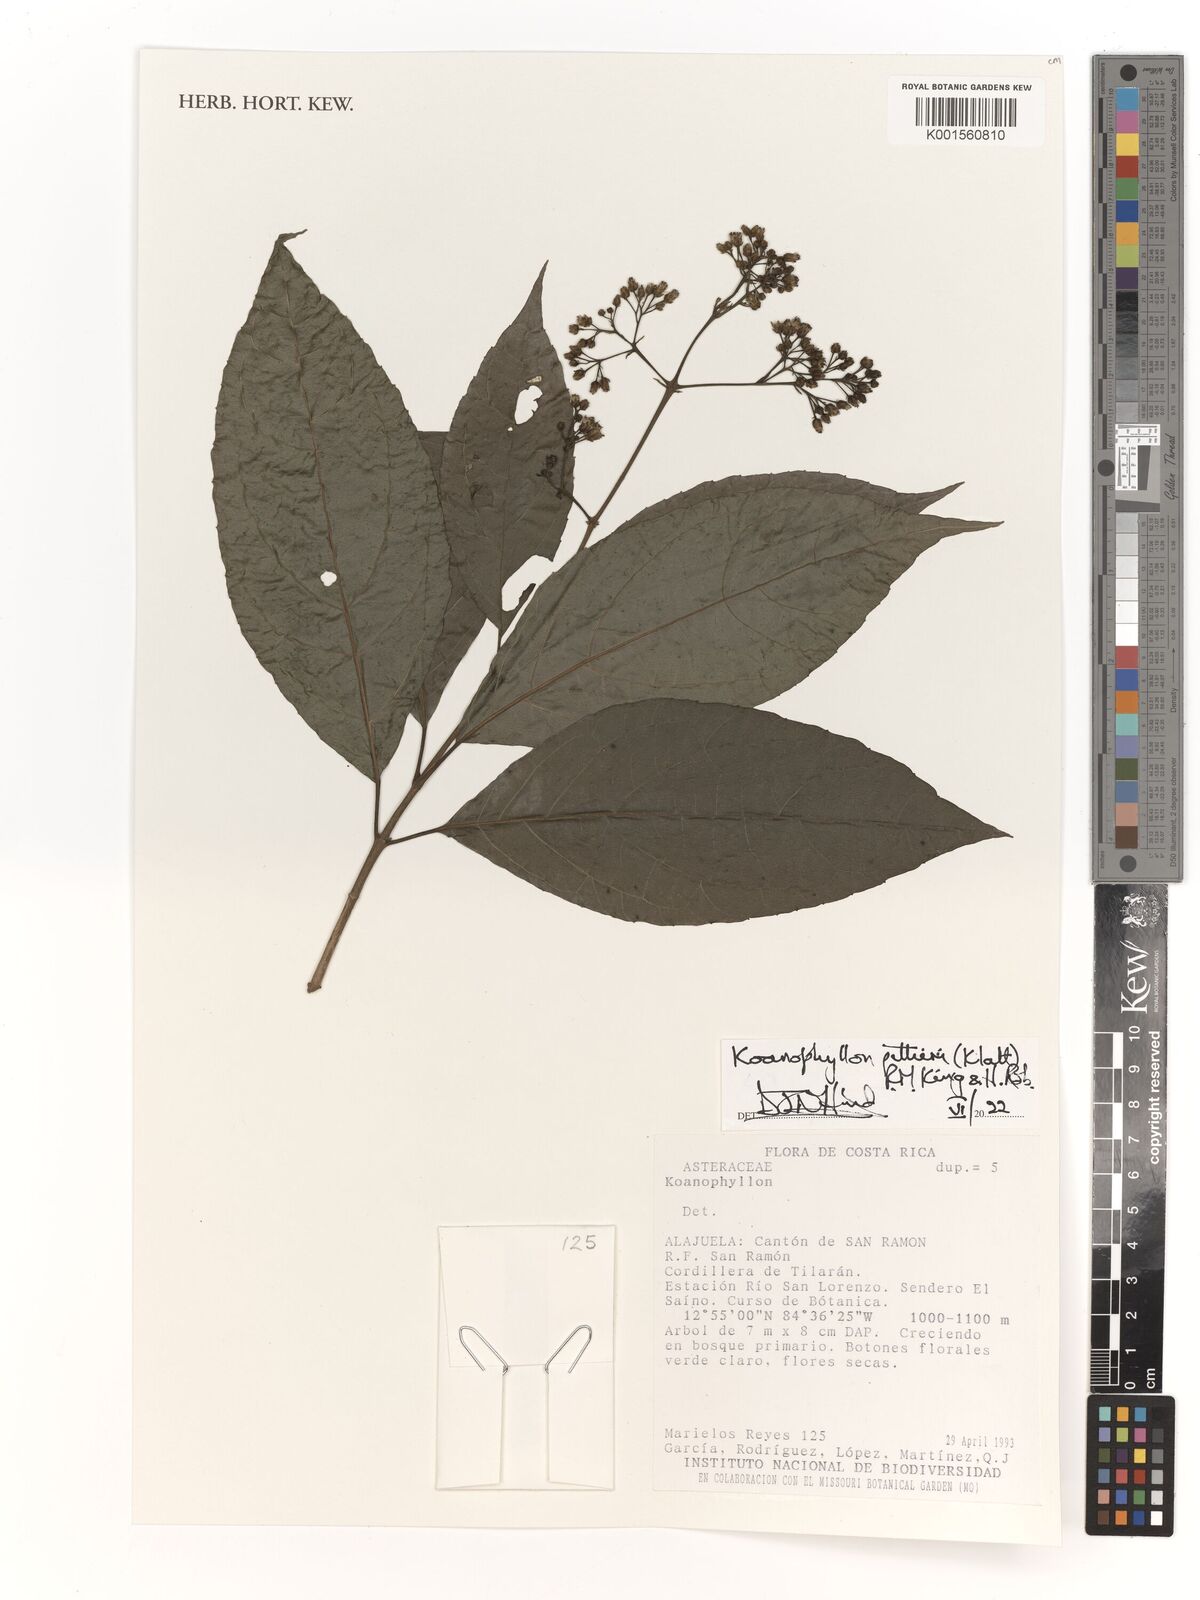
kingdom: Plantae
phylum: Tracheophyta
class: Magnoliopsida
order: Asterales
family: Asteraceae
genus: Koanophyllon
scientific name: Koanophyllon pittieri
